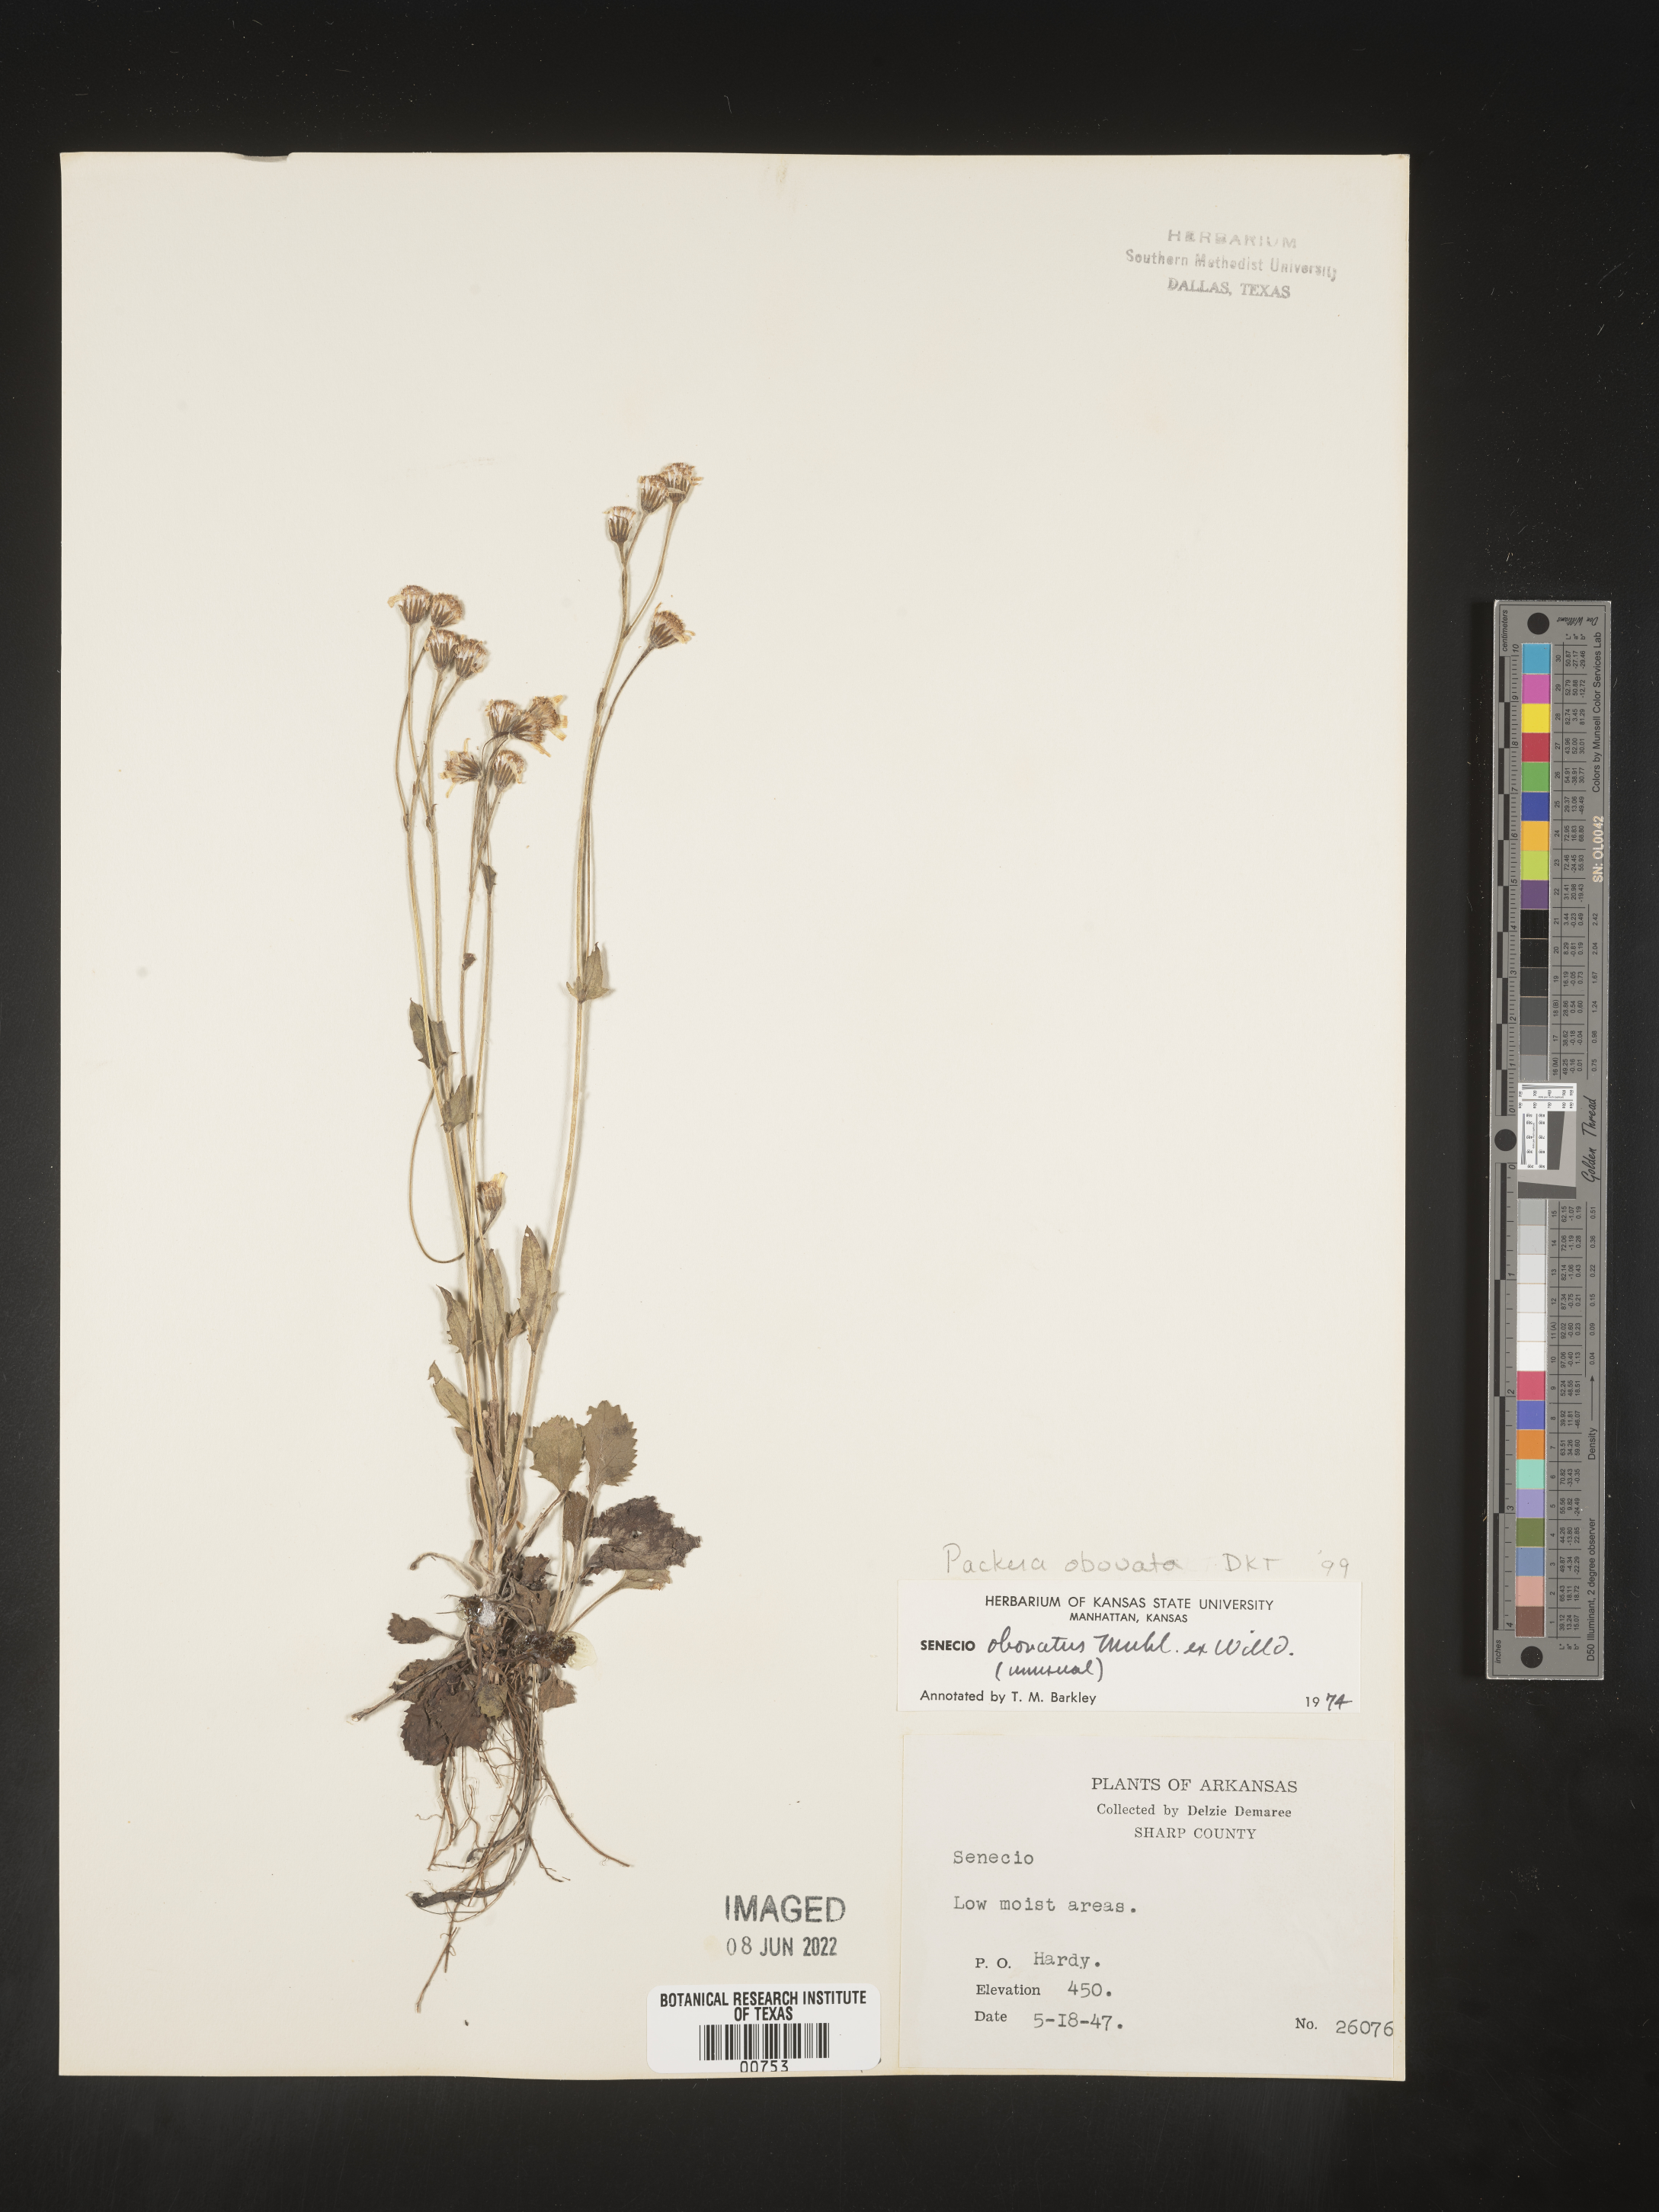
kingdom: Plantae
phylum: Tracheophyta
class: Magnoliopsida
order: Asterales
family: Asteraceae
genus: Packera
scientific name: Packera obovata
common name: Round-leaf ragwort
